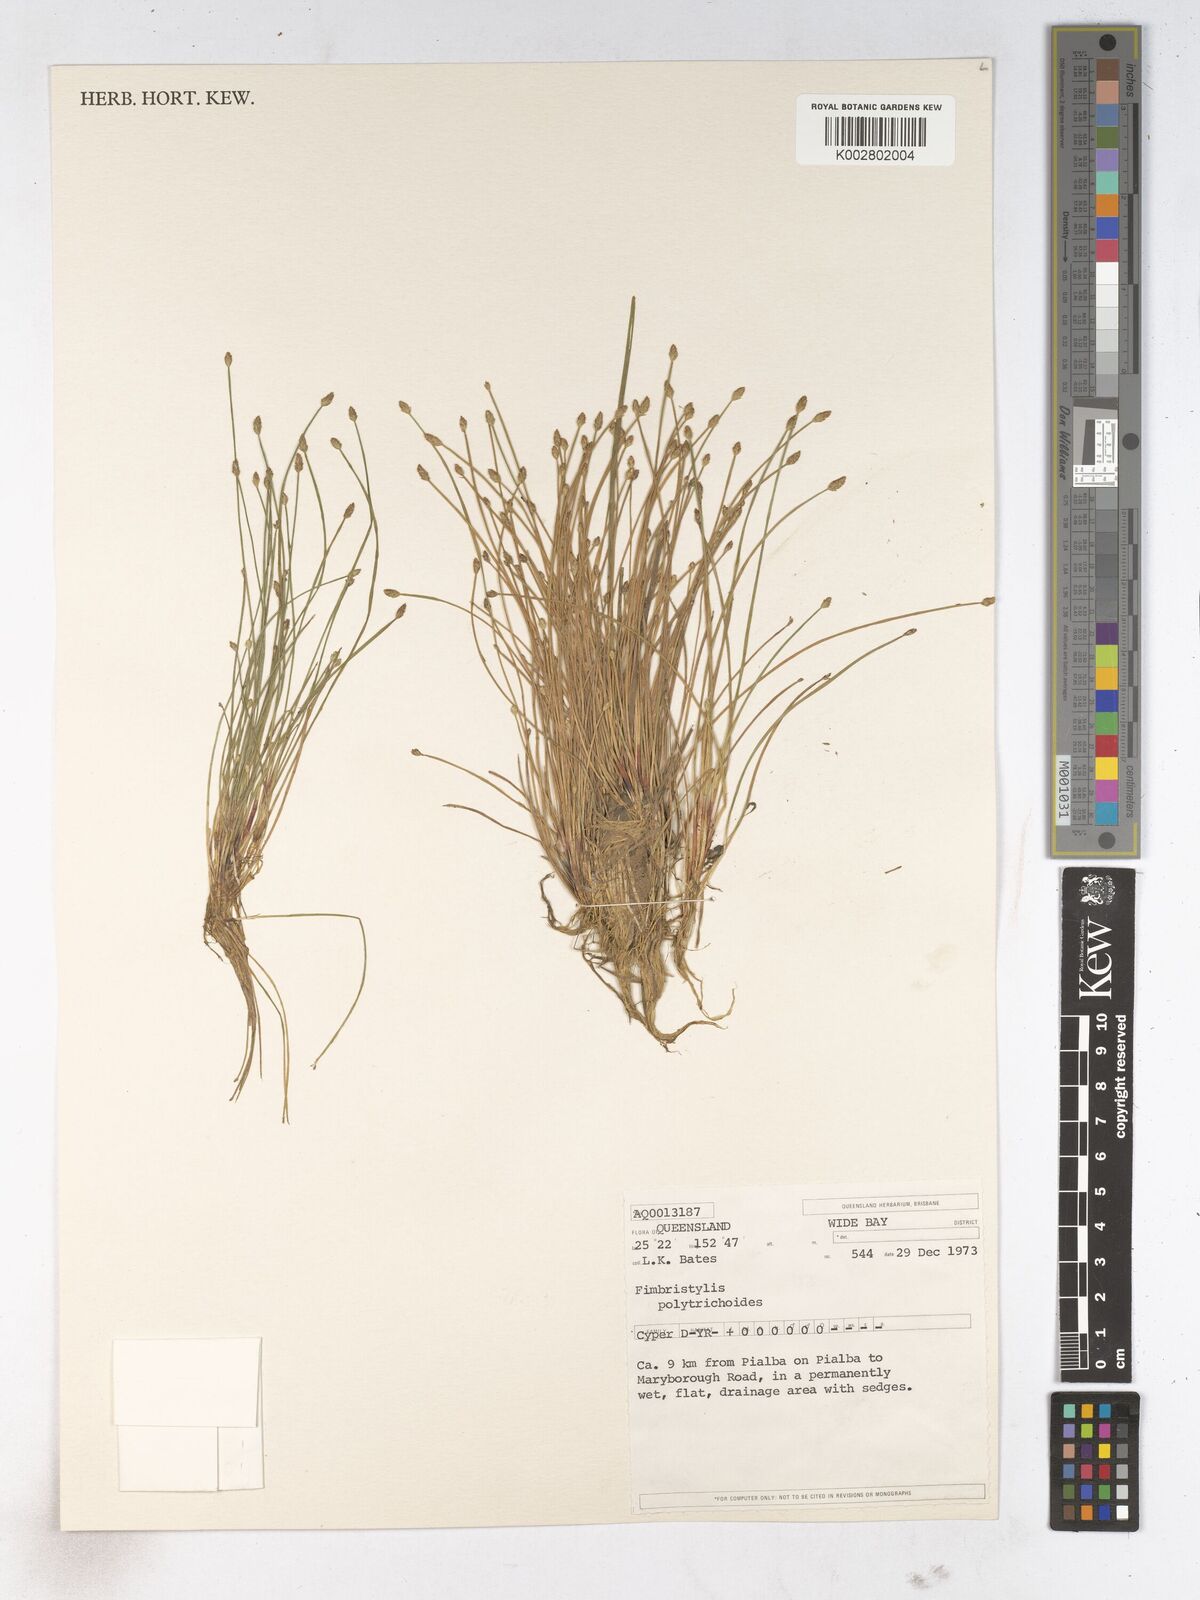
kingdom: Plantae
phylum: Tracheophyta
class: Liliopsida
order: Poales
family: Cyperaceae
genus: Fimbristylis
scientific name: Fimbristylis polytrichoides
